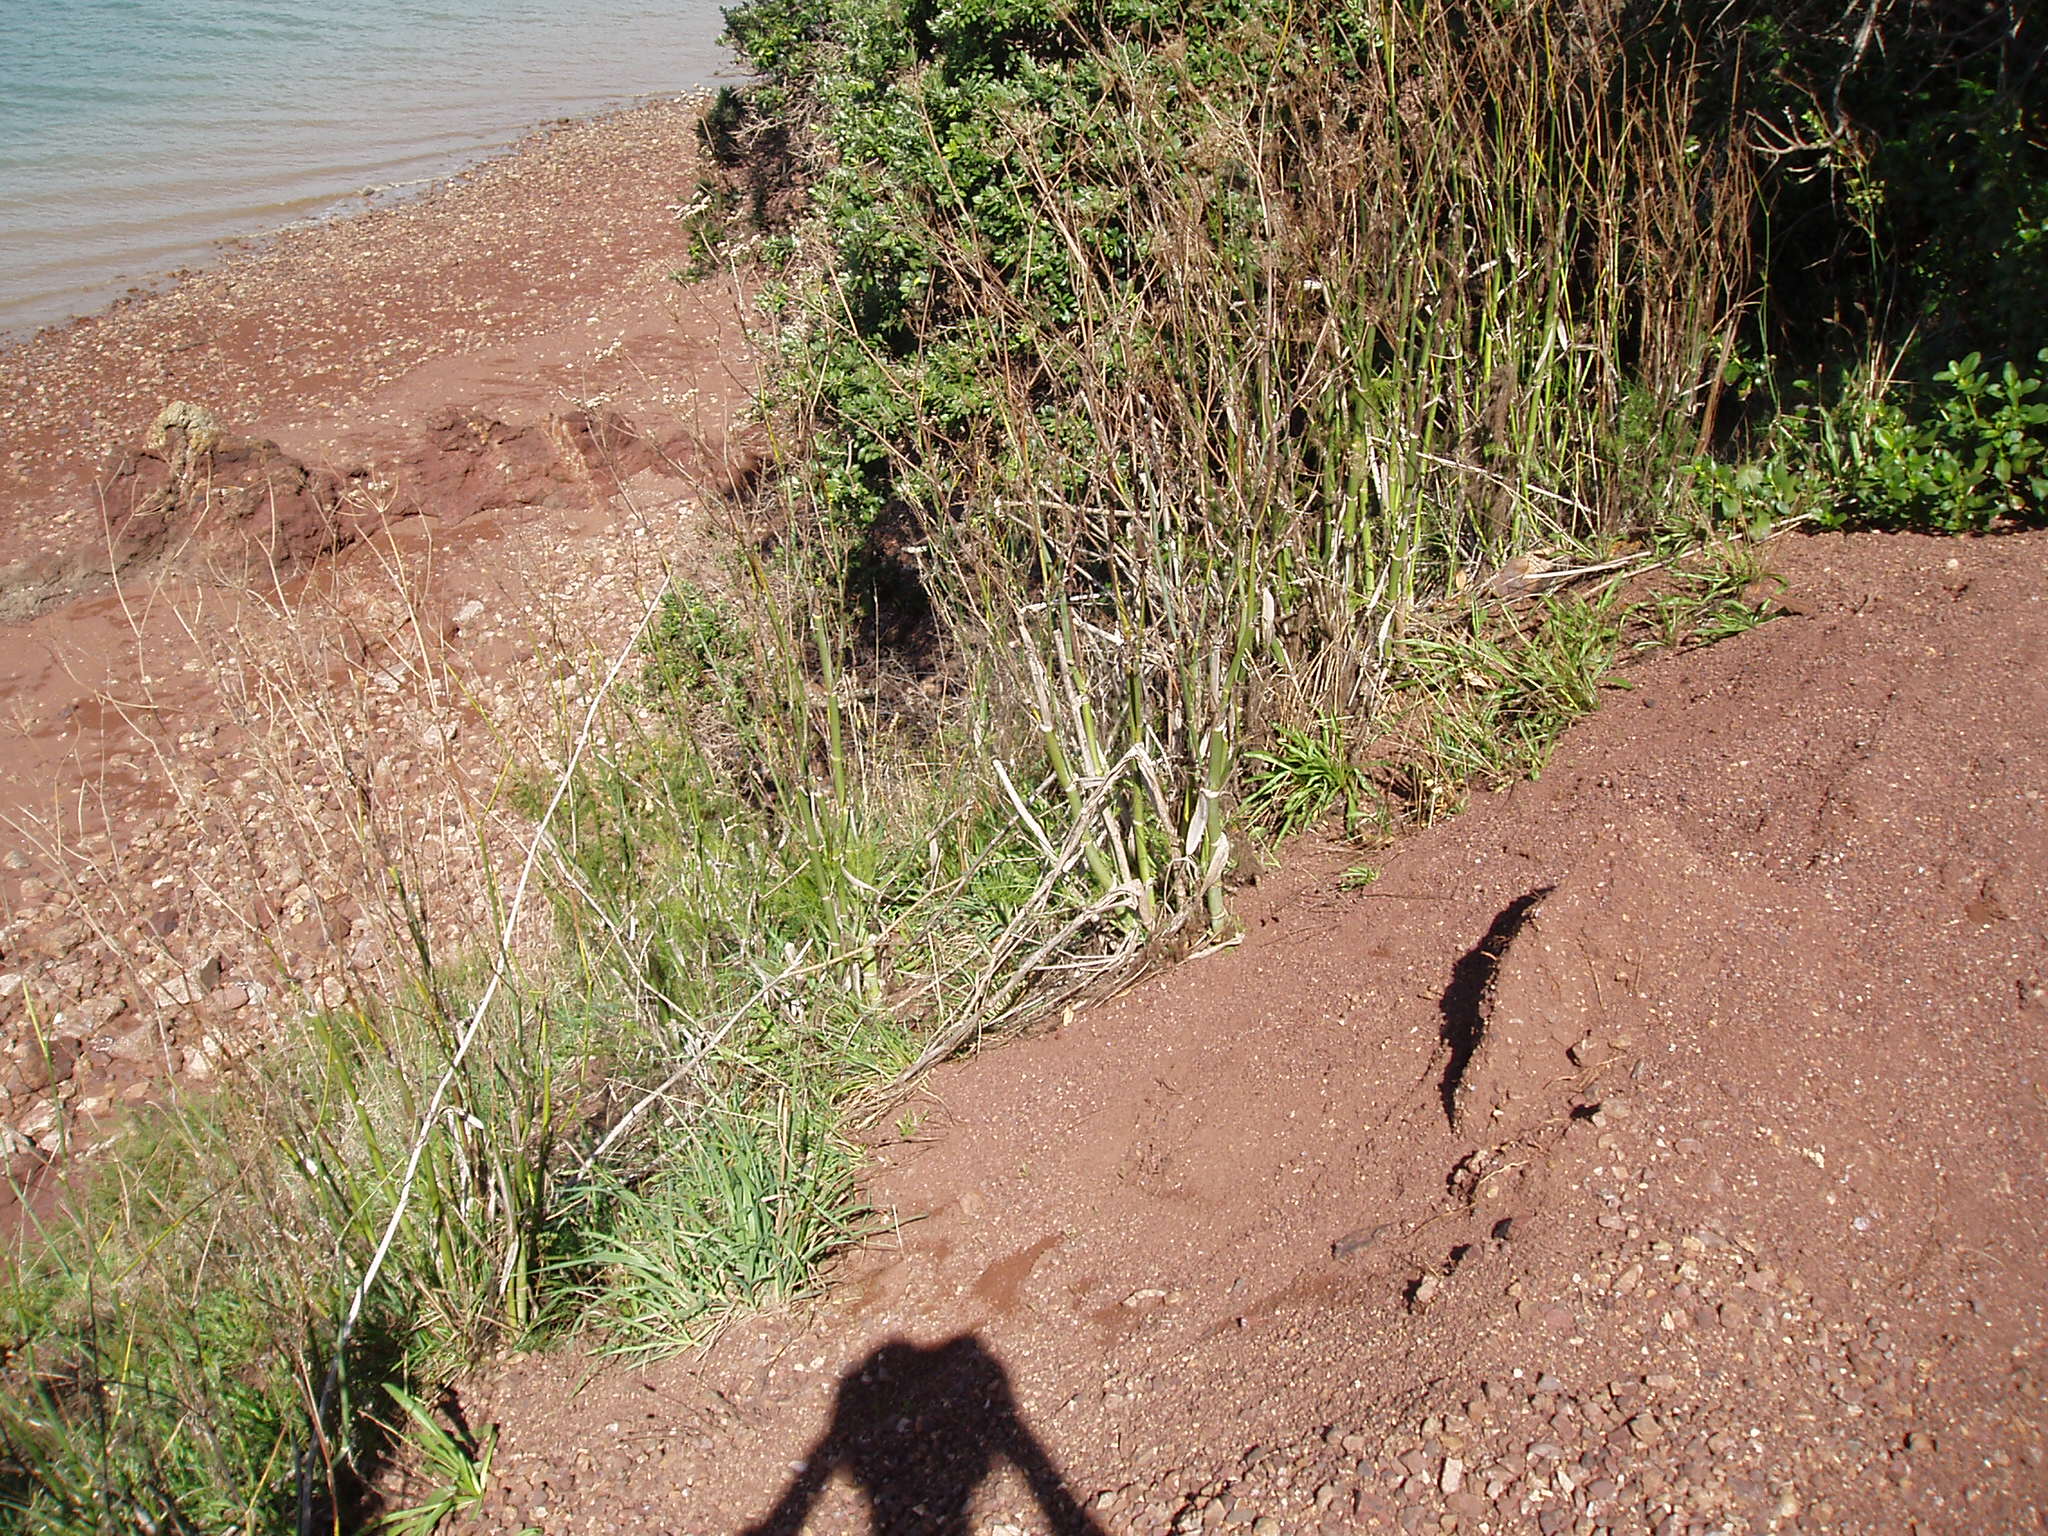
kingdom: Plantae
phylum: Tracheophyta
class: Magnoliopsida
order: Apiales
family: Apiaceae
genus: Foeniculum
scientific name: Foeniculum vulgare
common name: Fennel
